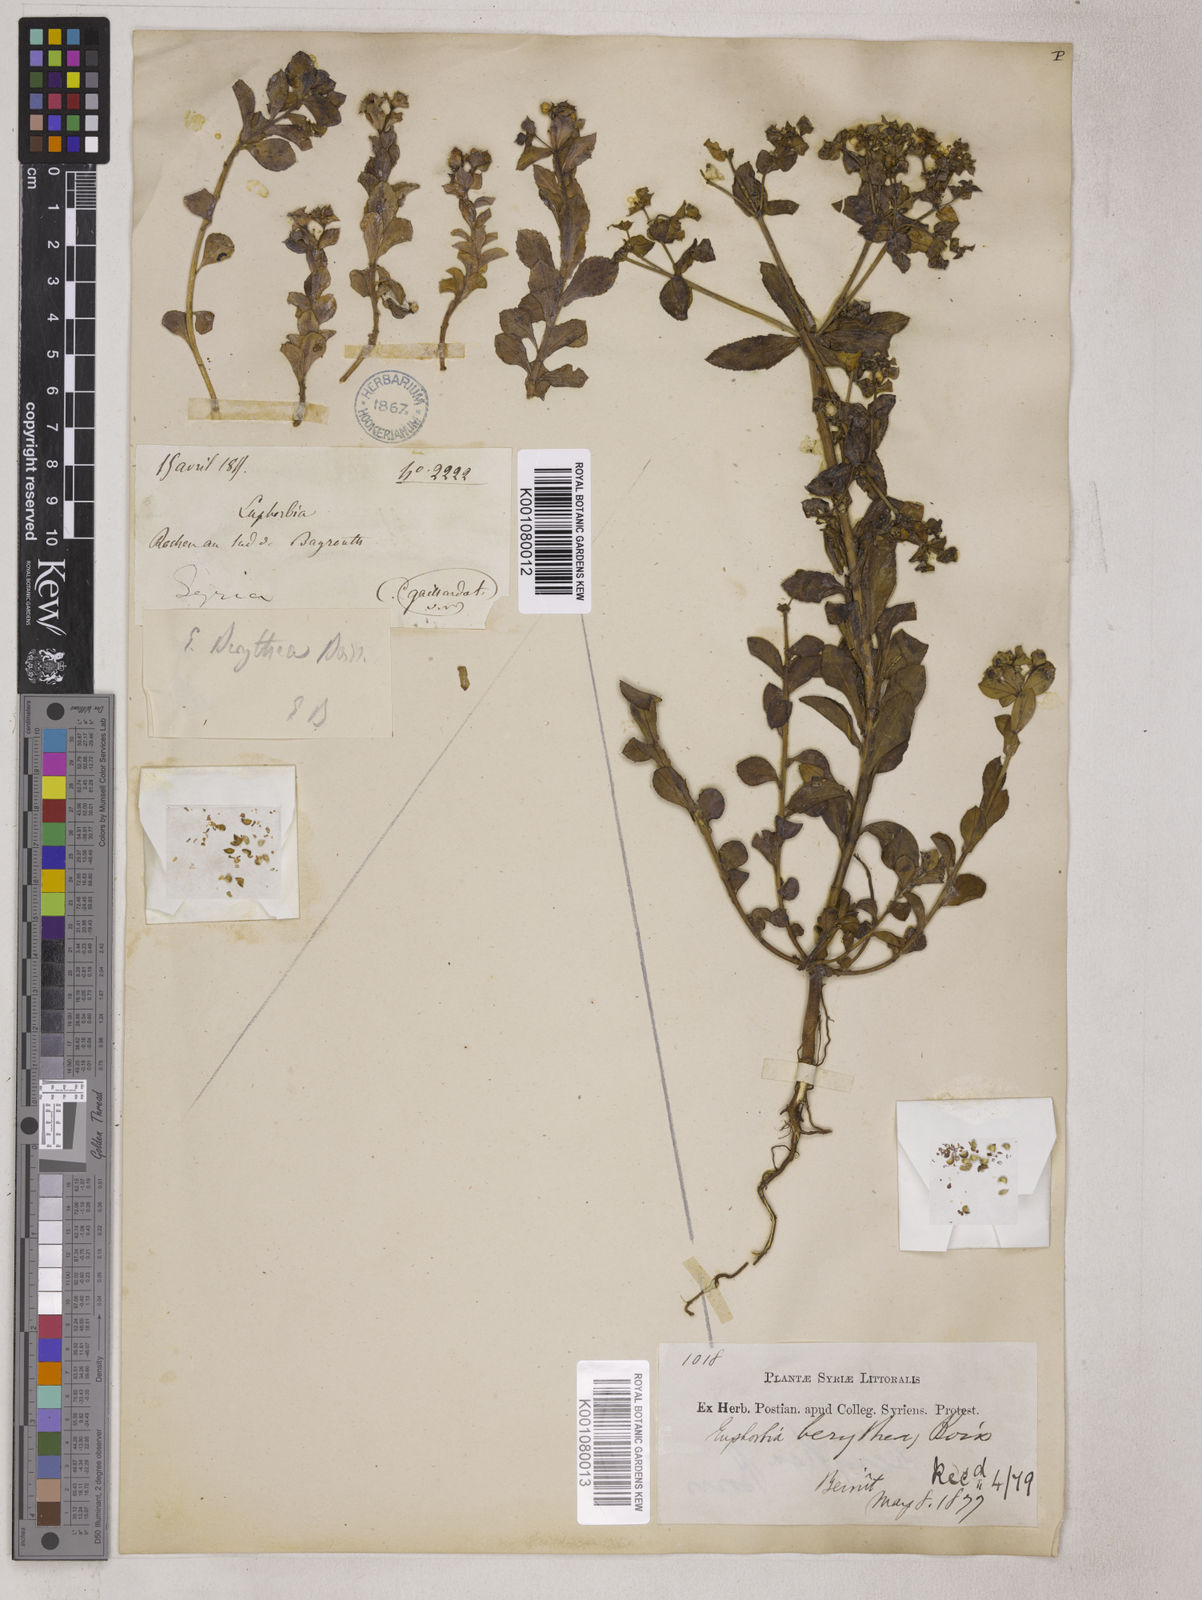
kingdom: Plantae
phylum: Tracheophyta
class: Magnoliopsida
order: Malpighiales
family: Euphorbiaceae
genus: Euphorbia
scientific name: Euphorbia berythea
